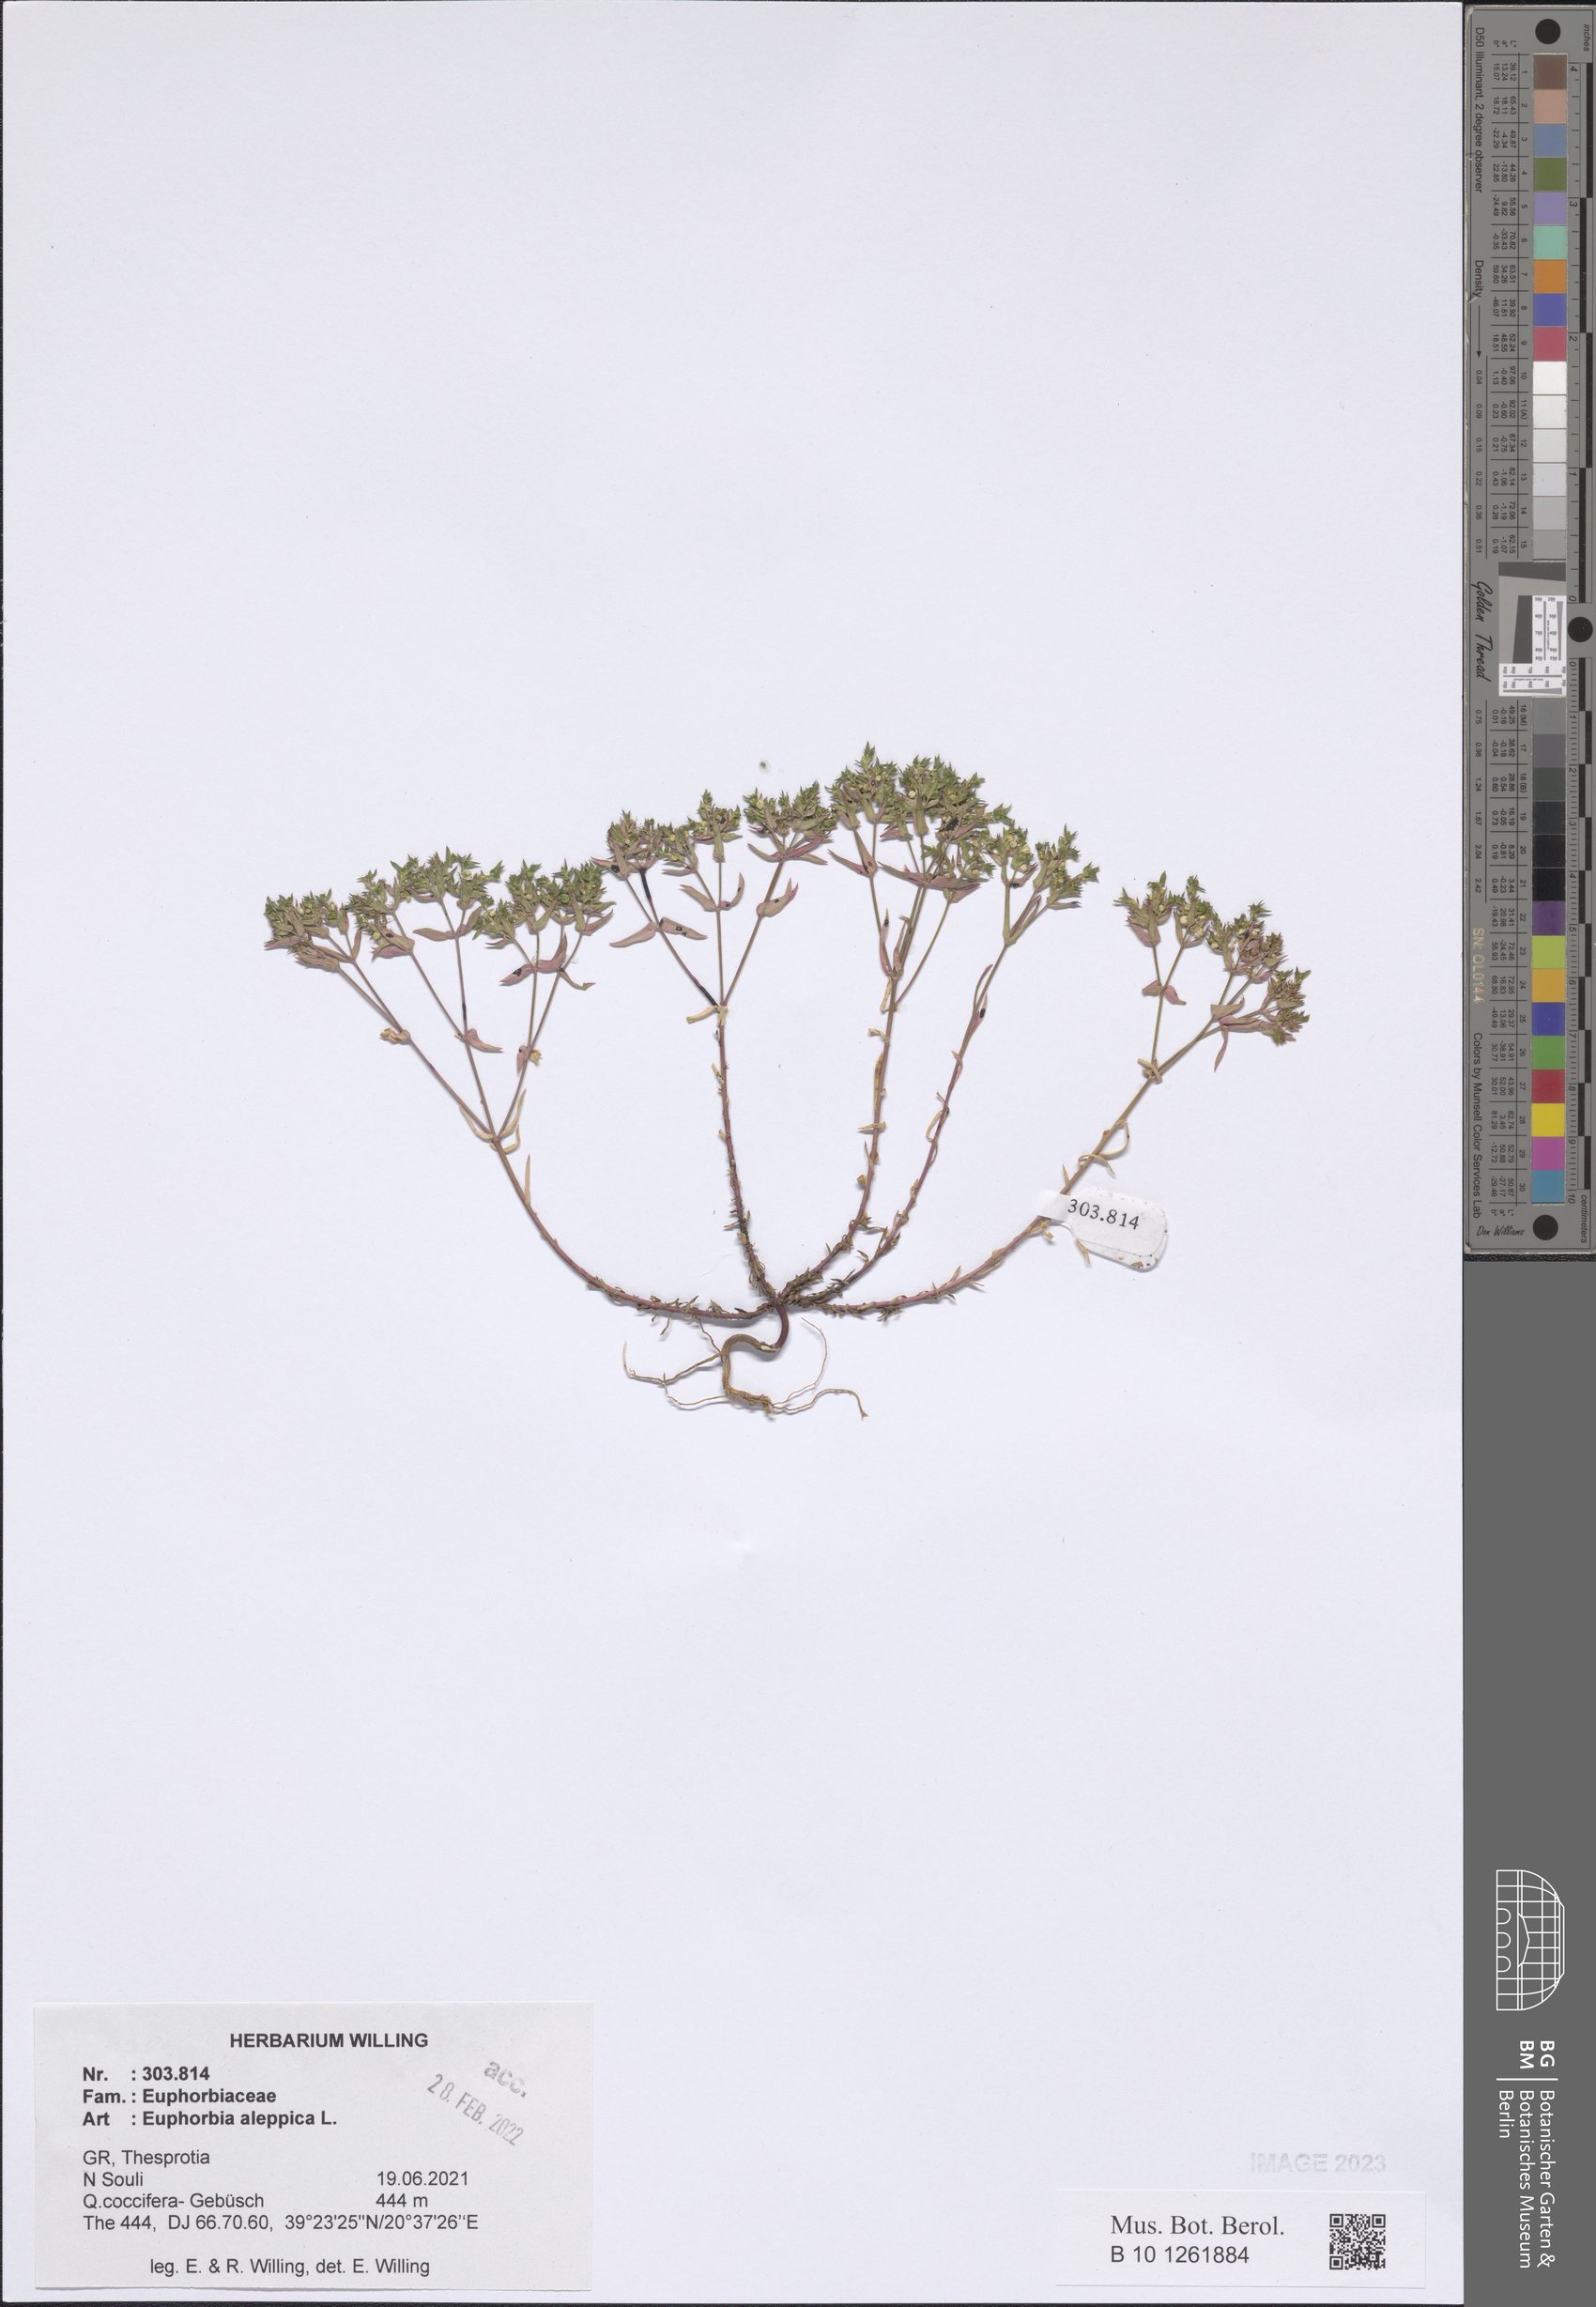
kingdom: Plantae
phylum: Tracheophyta
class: Magnoliopsida
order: Malpighiales
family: Euphorbiaceae
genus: Euphorbia
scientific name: Euphorbia aleppica
